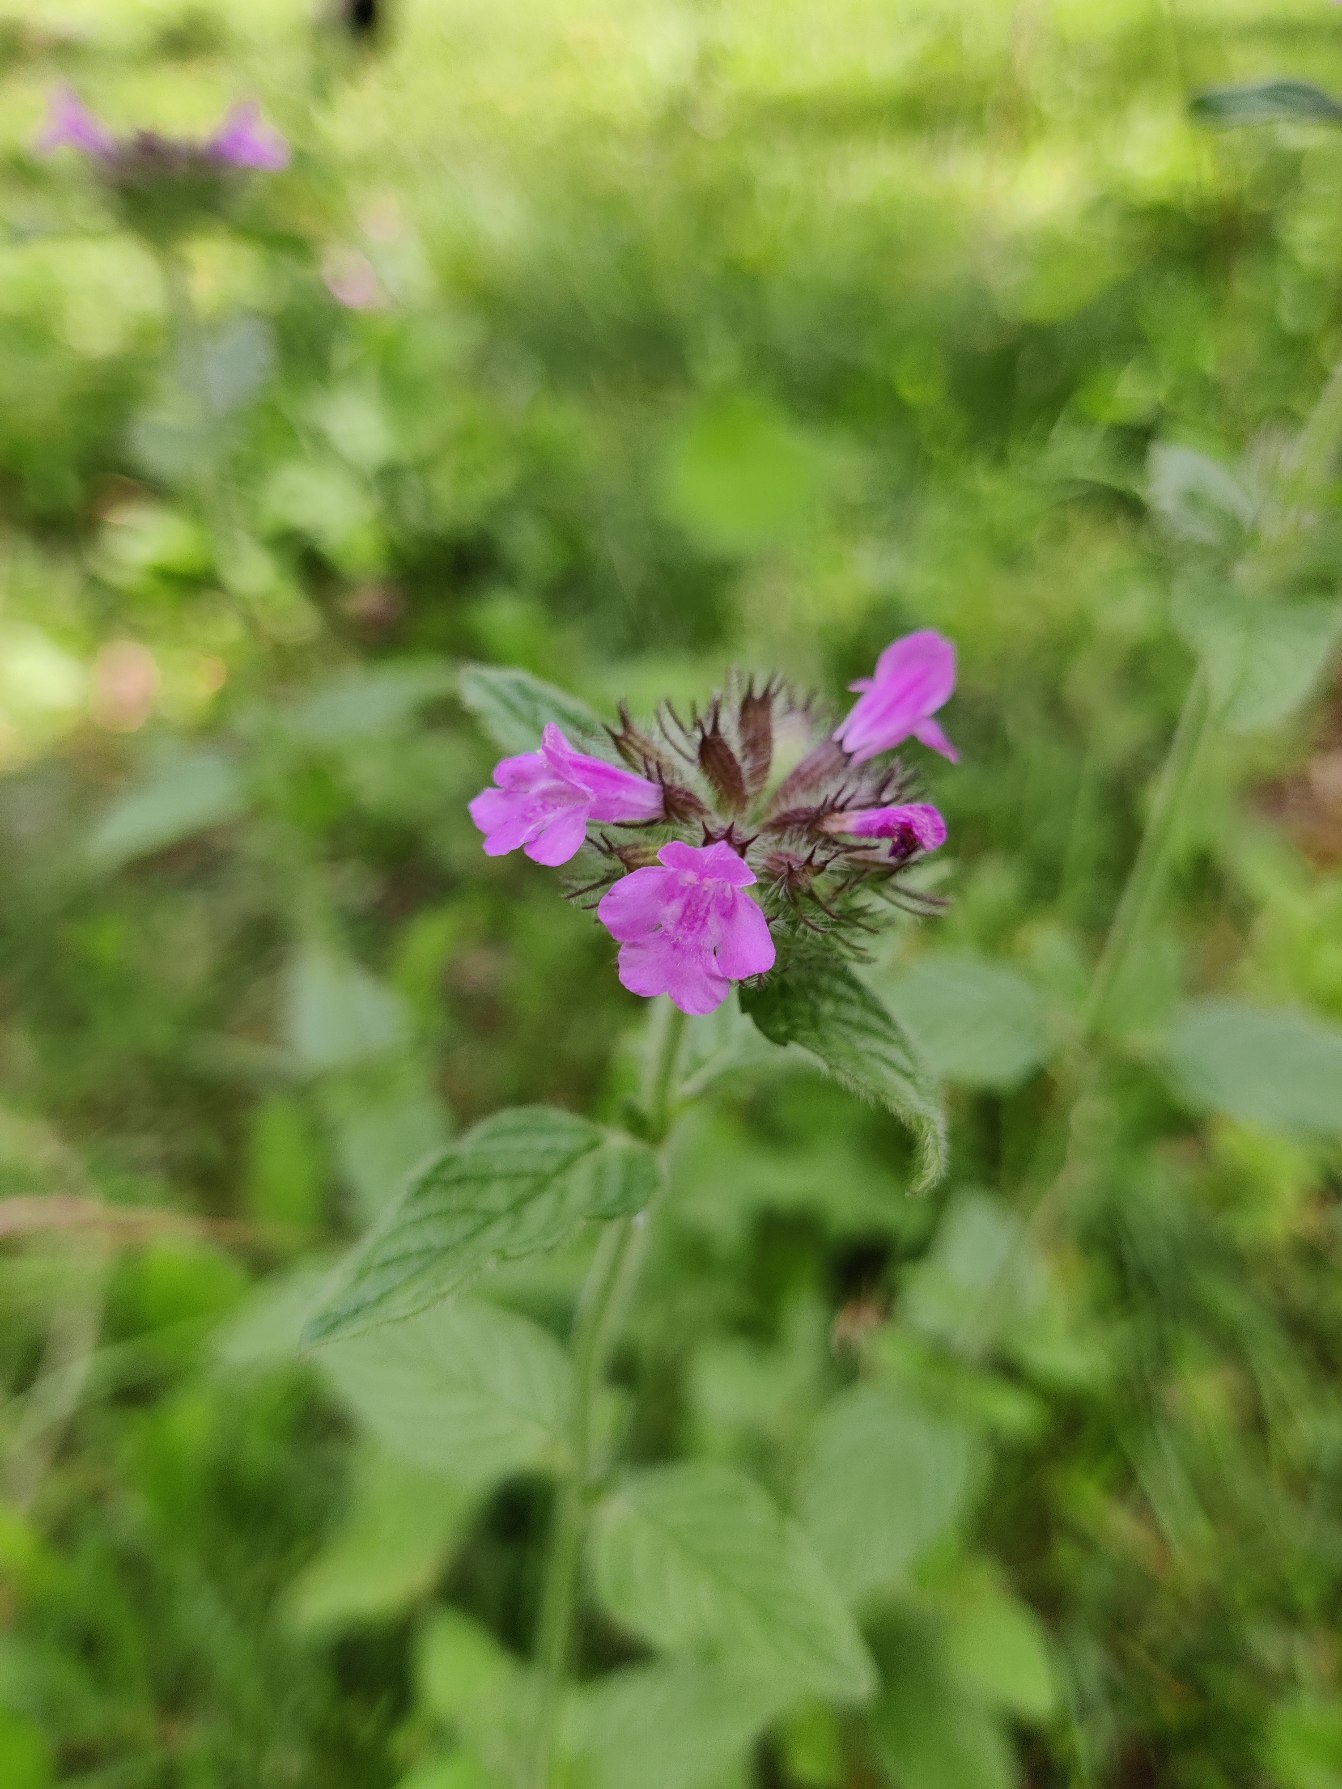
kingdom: Plantae
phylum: Tracheophyta
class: Magnoliopsida
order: Lamiales
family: Lamiaceae
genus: Clinopodium
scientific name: Clinopodium vulgare
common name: Kransbørste
